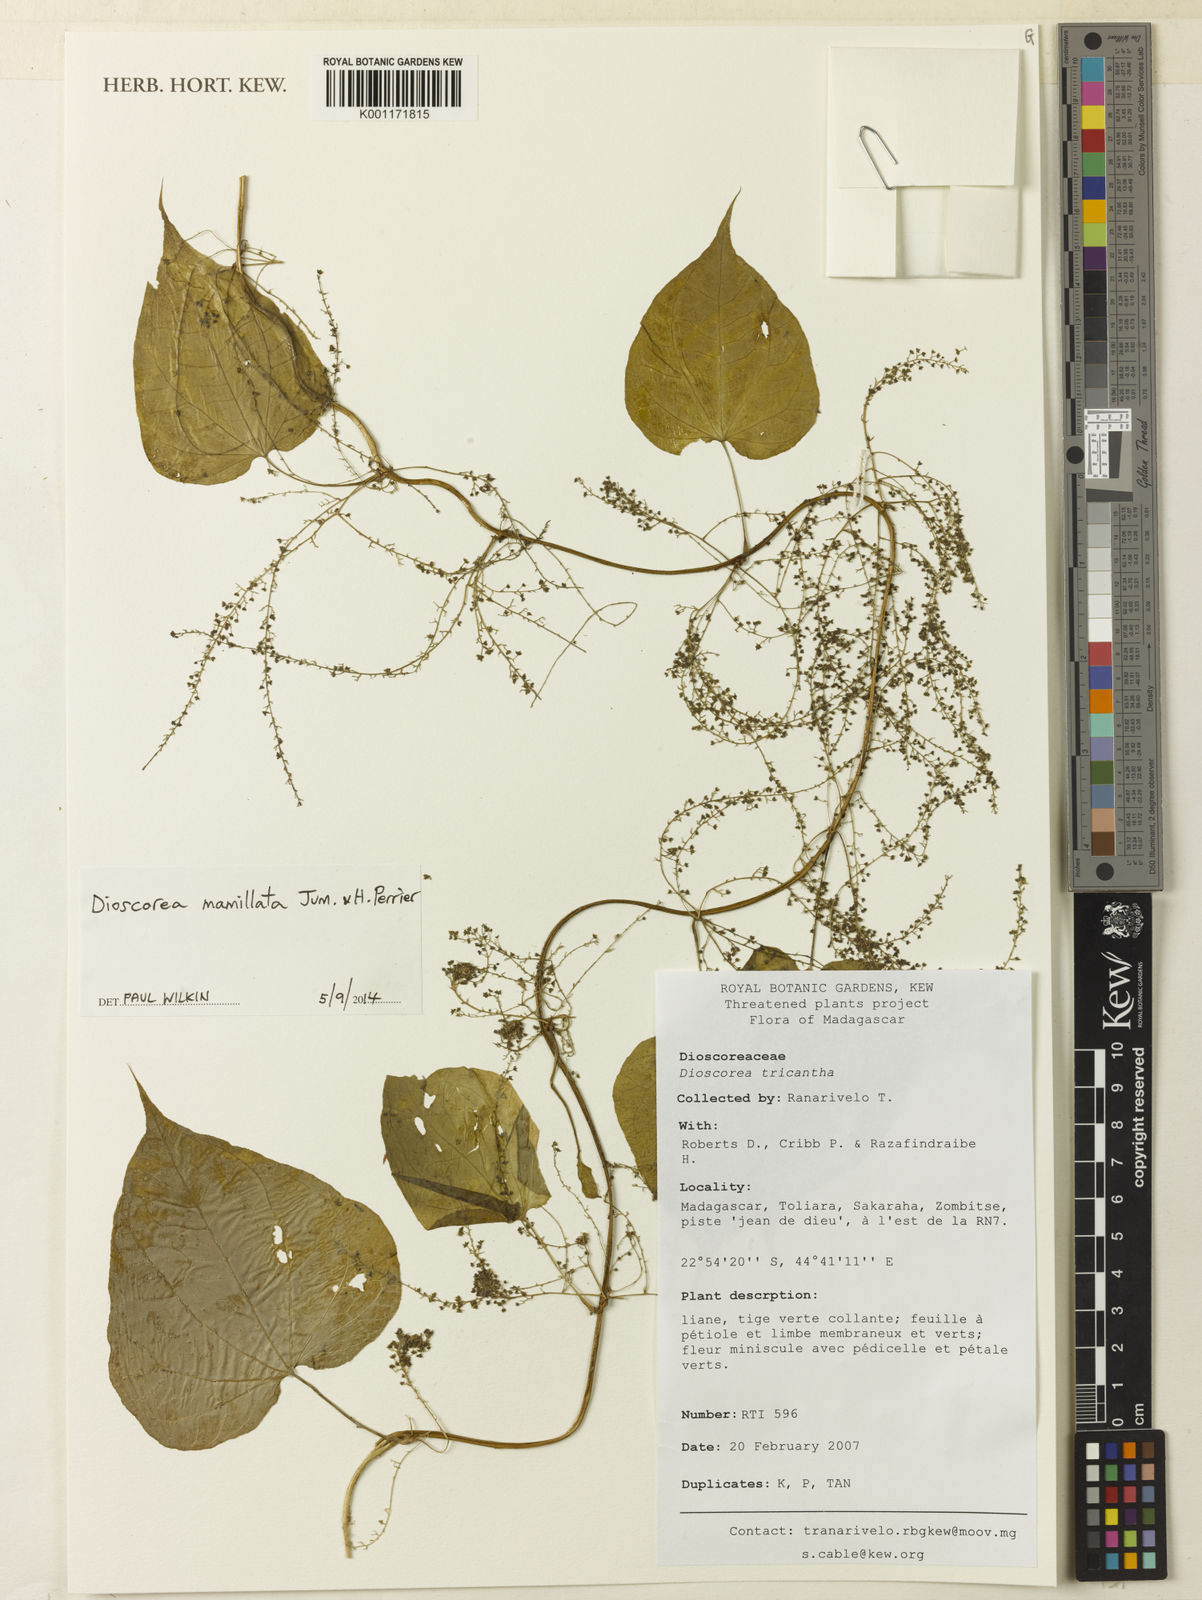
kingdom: Plantae
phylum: Tracheophyta
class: Liliopsida
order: Dioscoreales
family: Dioscoreaceae
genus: Dioscorea
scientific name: Dioscorea trichantha
